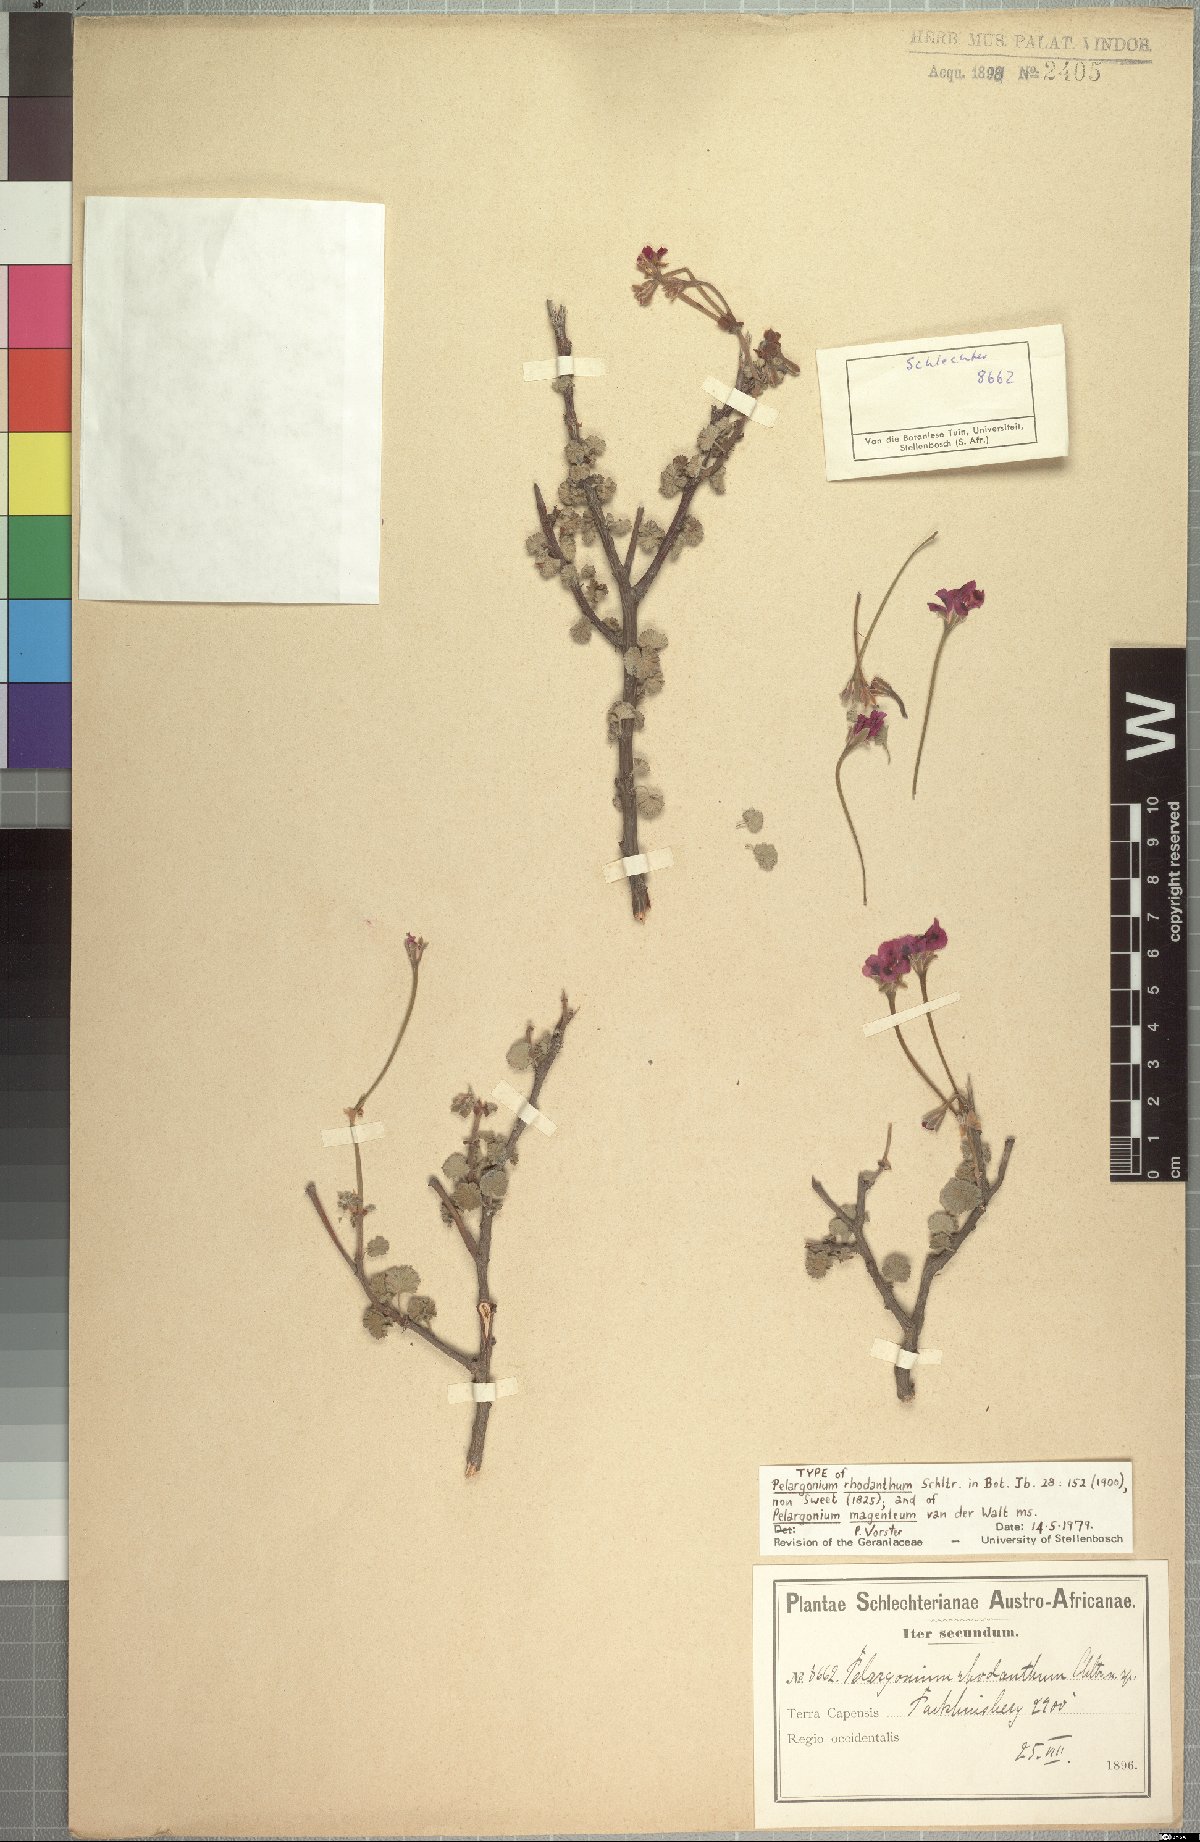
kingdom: Plantae
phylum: Tracheophyta
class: Magnoliopsida
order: Geraniales
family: Geraniaceae
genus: Pelargonium
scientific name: Pelargonium magenteum
